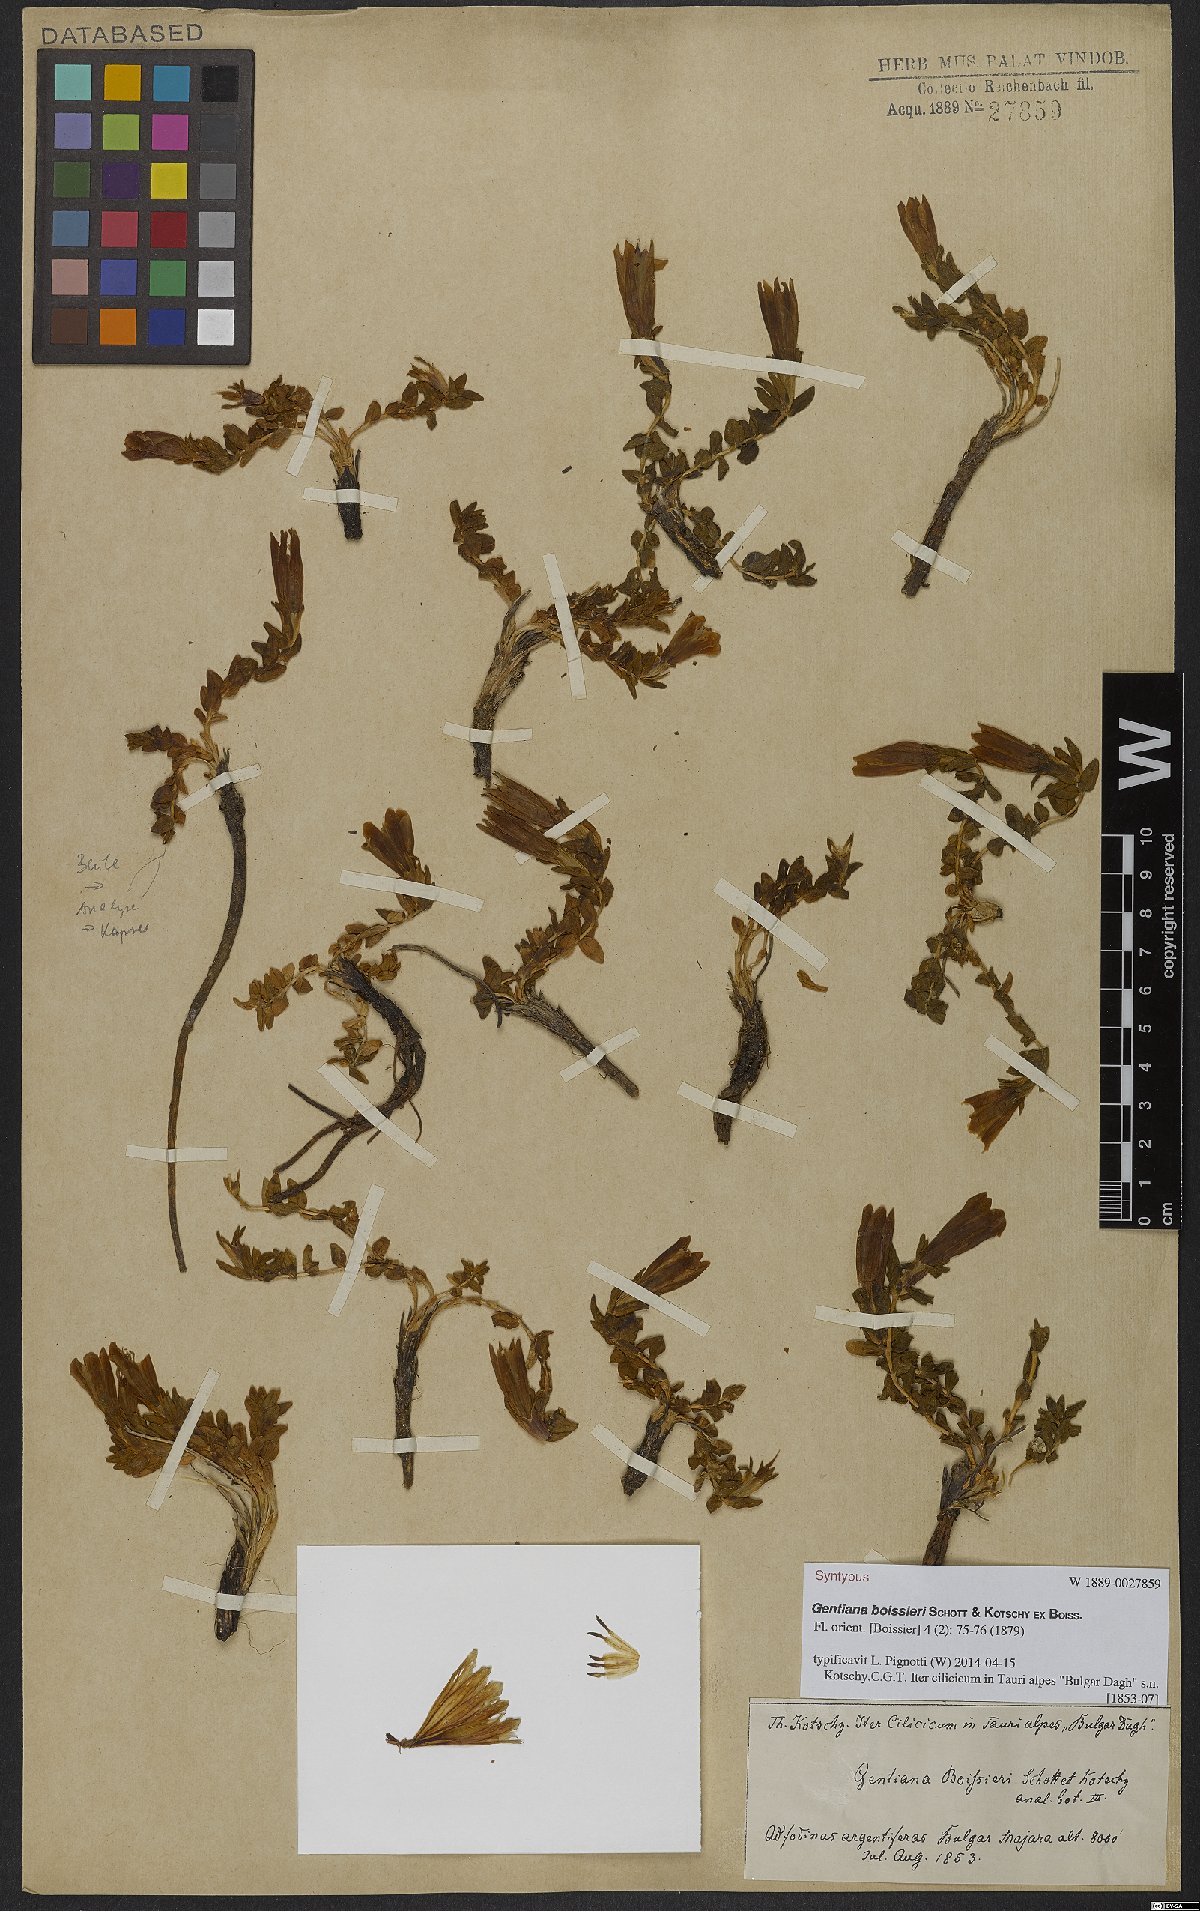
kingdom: Plantae
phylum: Tracheophyta
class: Magnoliopsida
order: Gentianales
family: Gentianaceae
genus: Gentiana
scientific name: Gentiana boissieri
